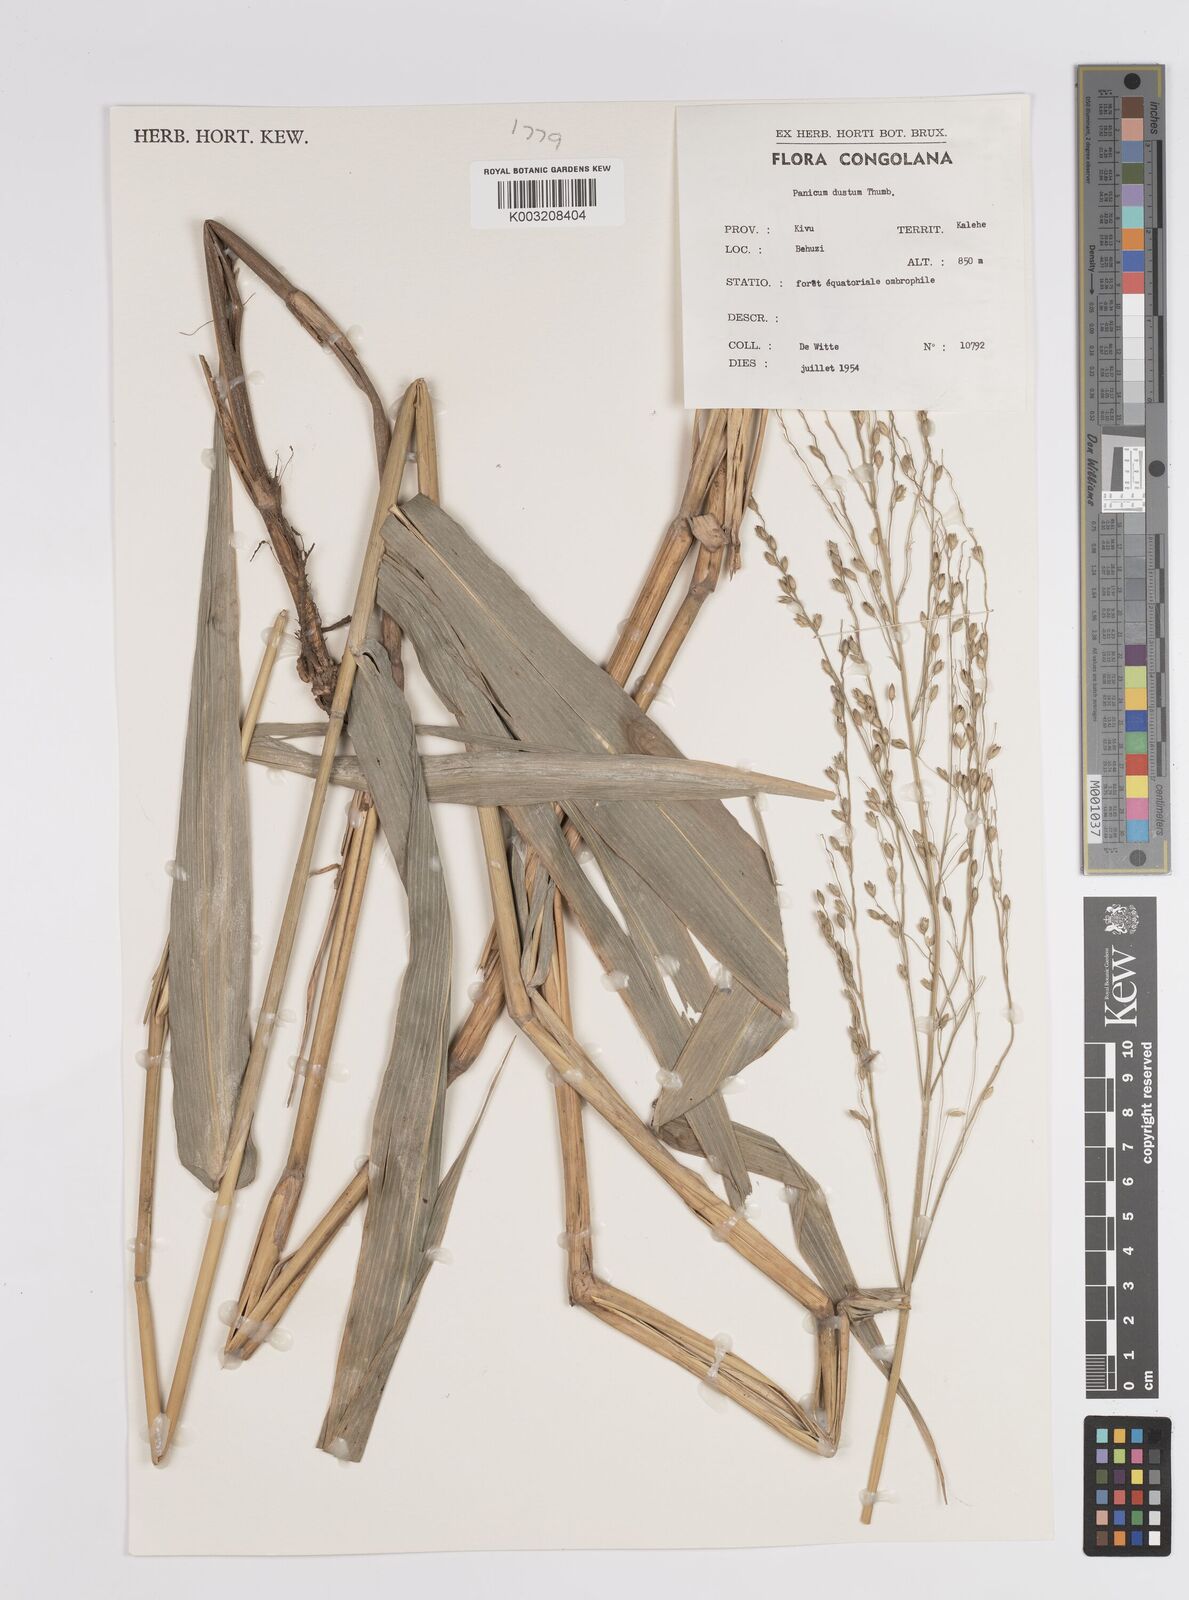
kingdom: Plantae
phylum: Tracheophyta
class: Liliopsida
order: Poales
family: Poaceae
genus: Panicum
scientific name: Panicum deustum
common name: Reed panicum
